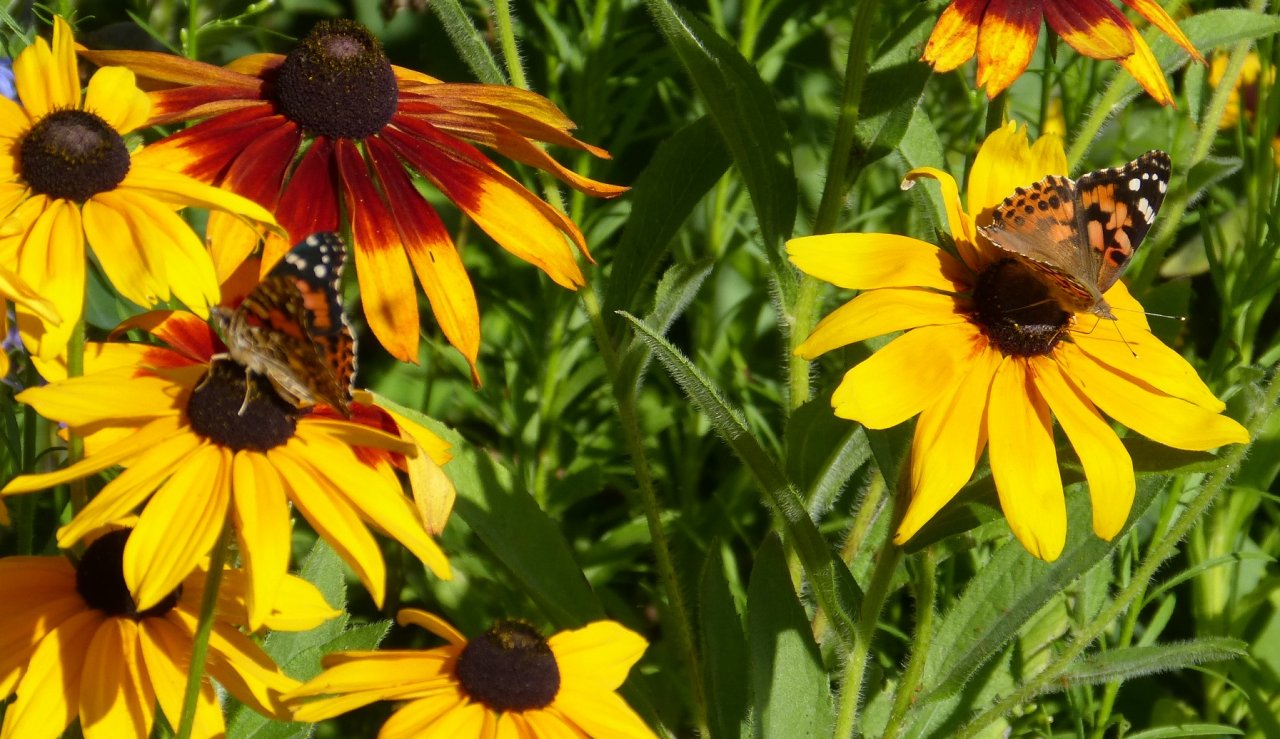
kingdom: Animalia
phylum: Arthropoda
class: Insecta
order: Lepidoptera
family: Nymphalidae
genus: Vanessa
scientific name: Vanessa cardui
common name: Painted Lady
